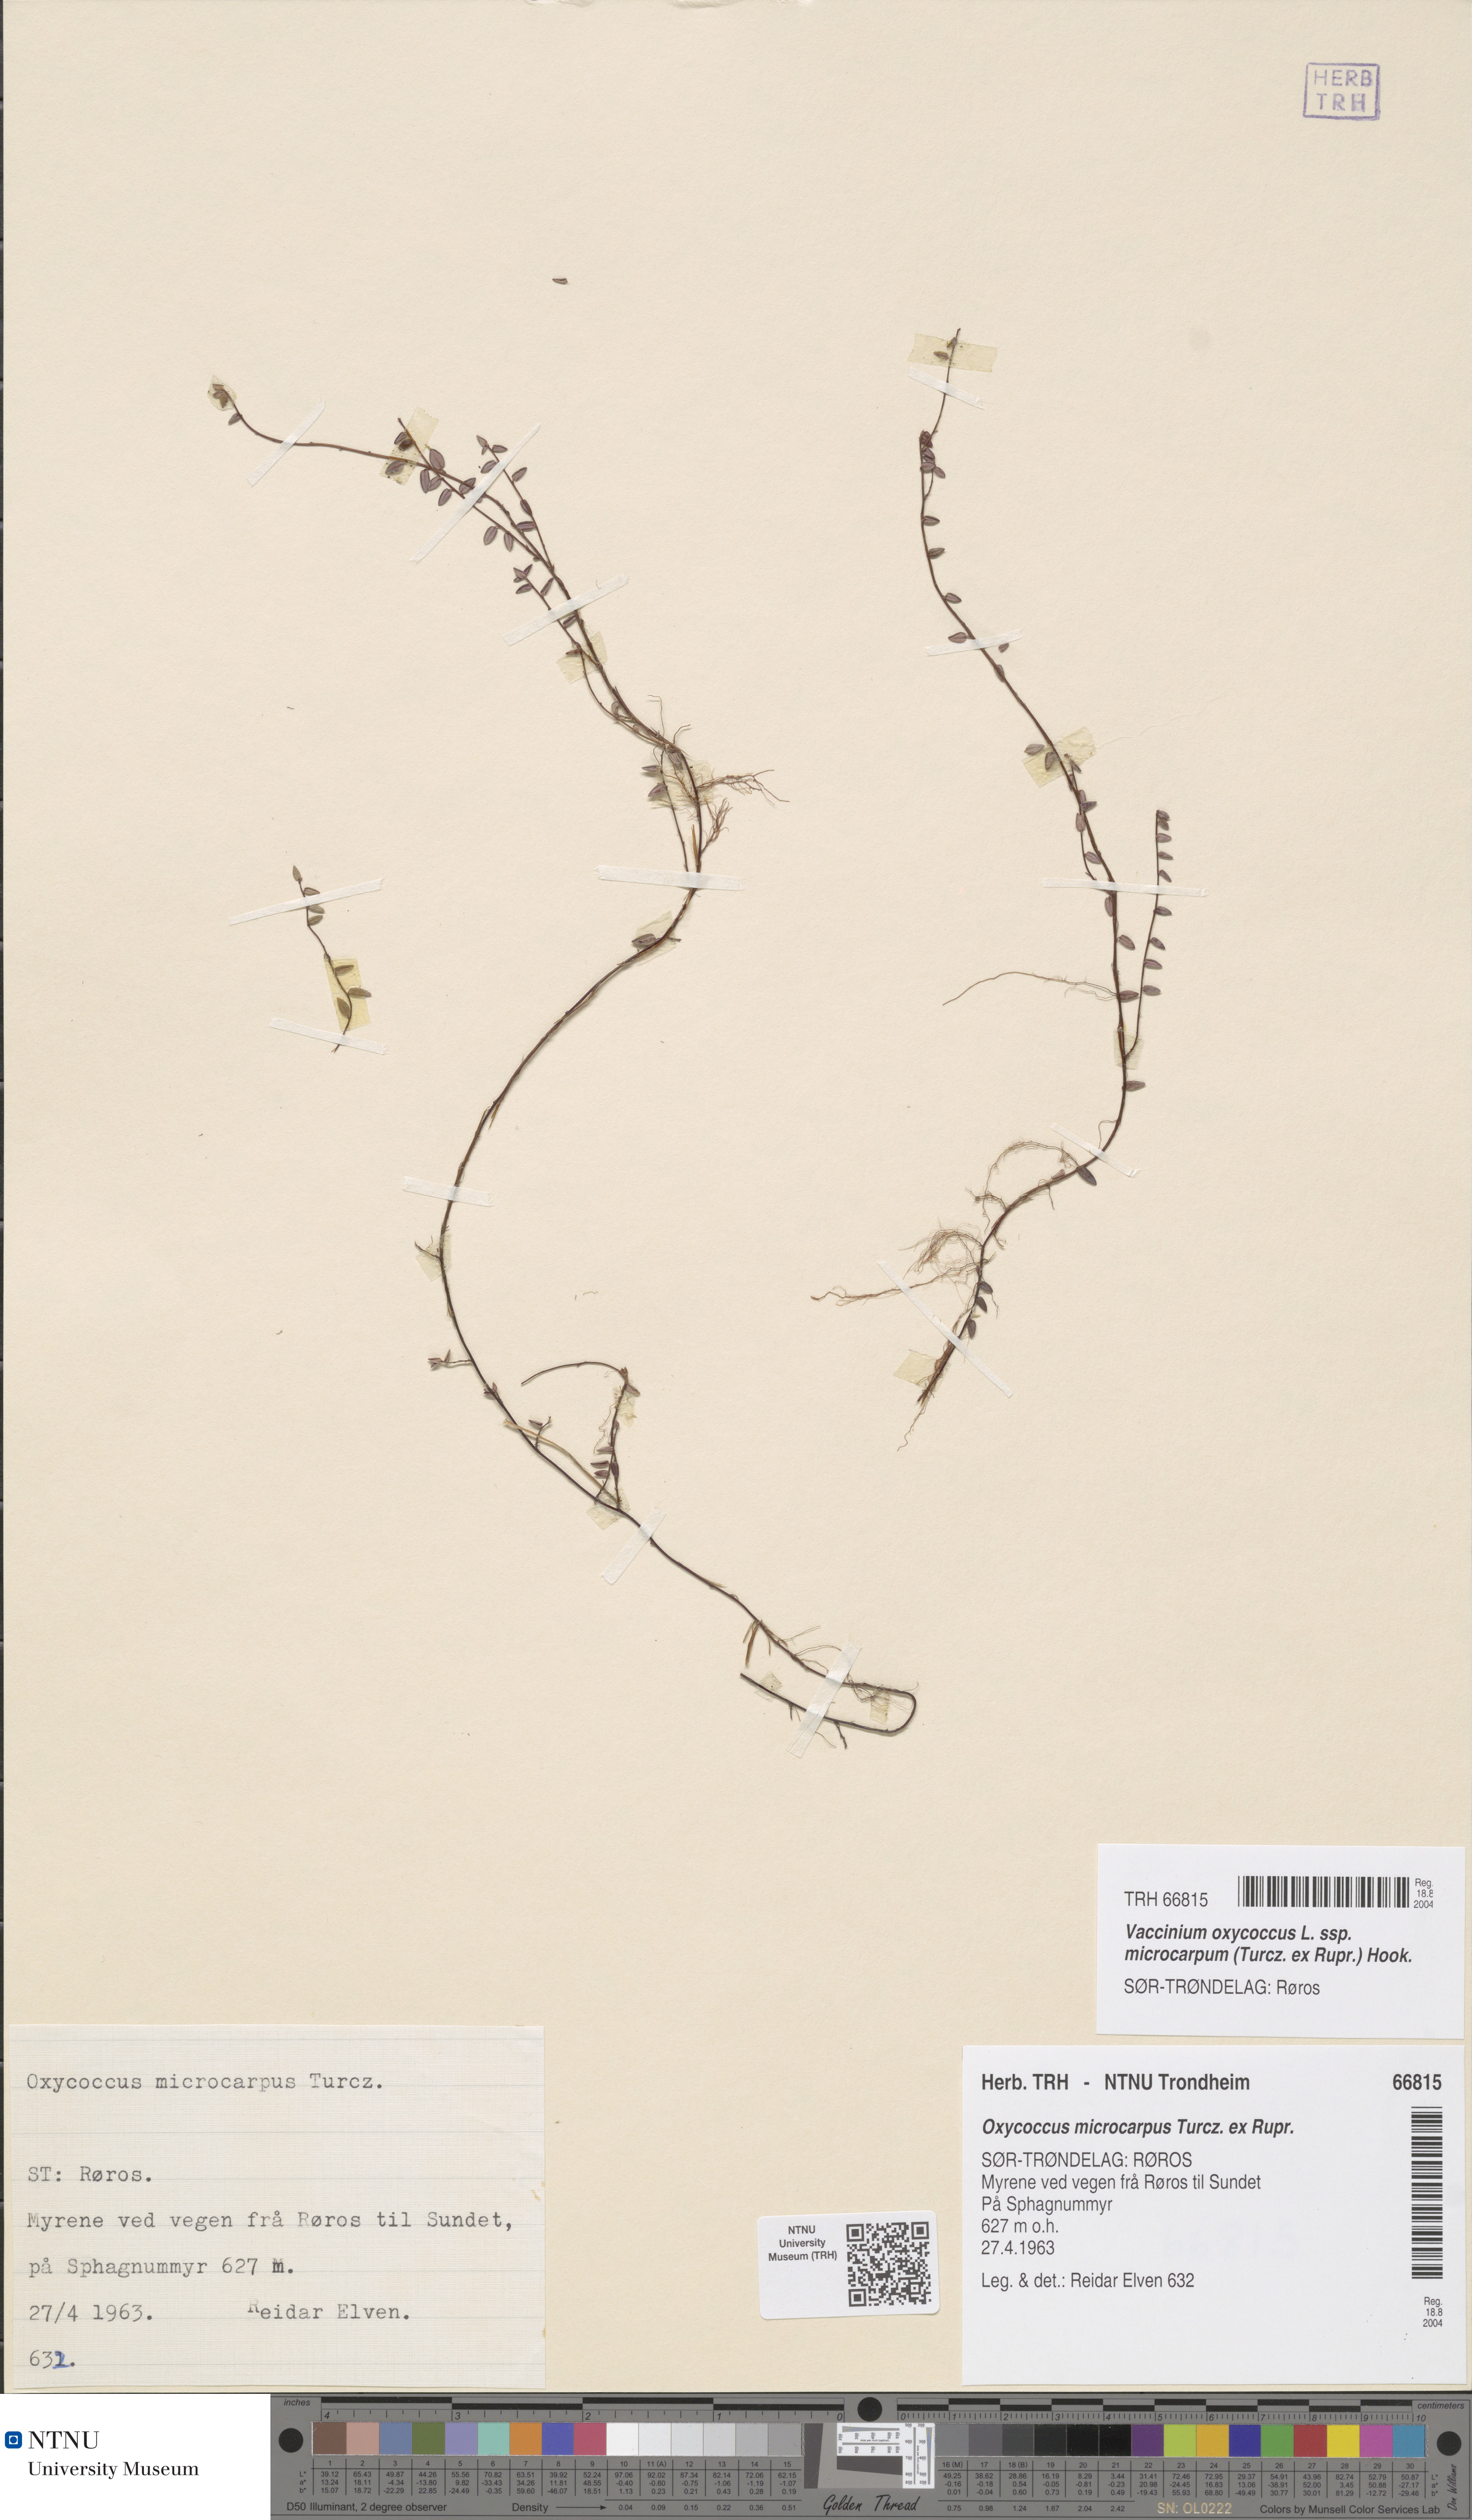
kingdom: Plantae
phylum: Tracheophyta
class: Magnoliopsida
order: Ericales
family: Ericaceae
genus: Vaccinium
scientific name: Vaccinium microcarpum
